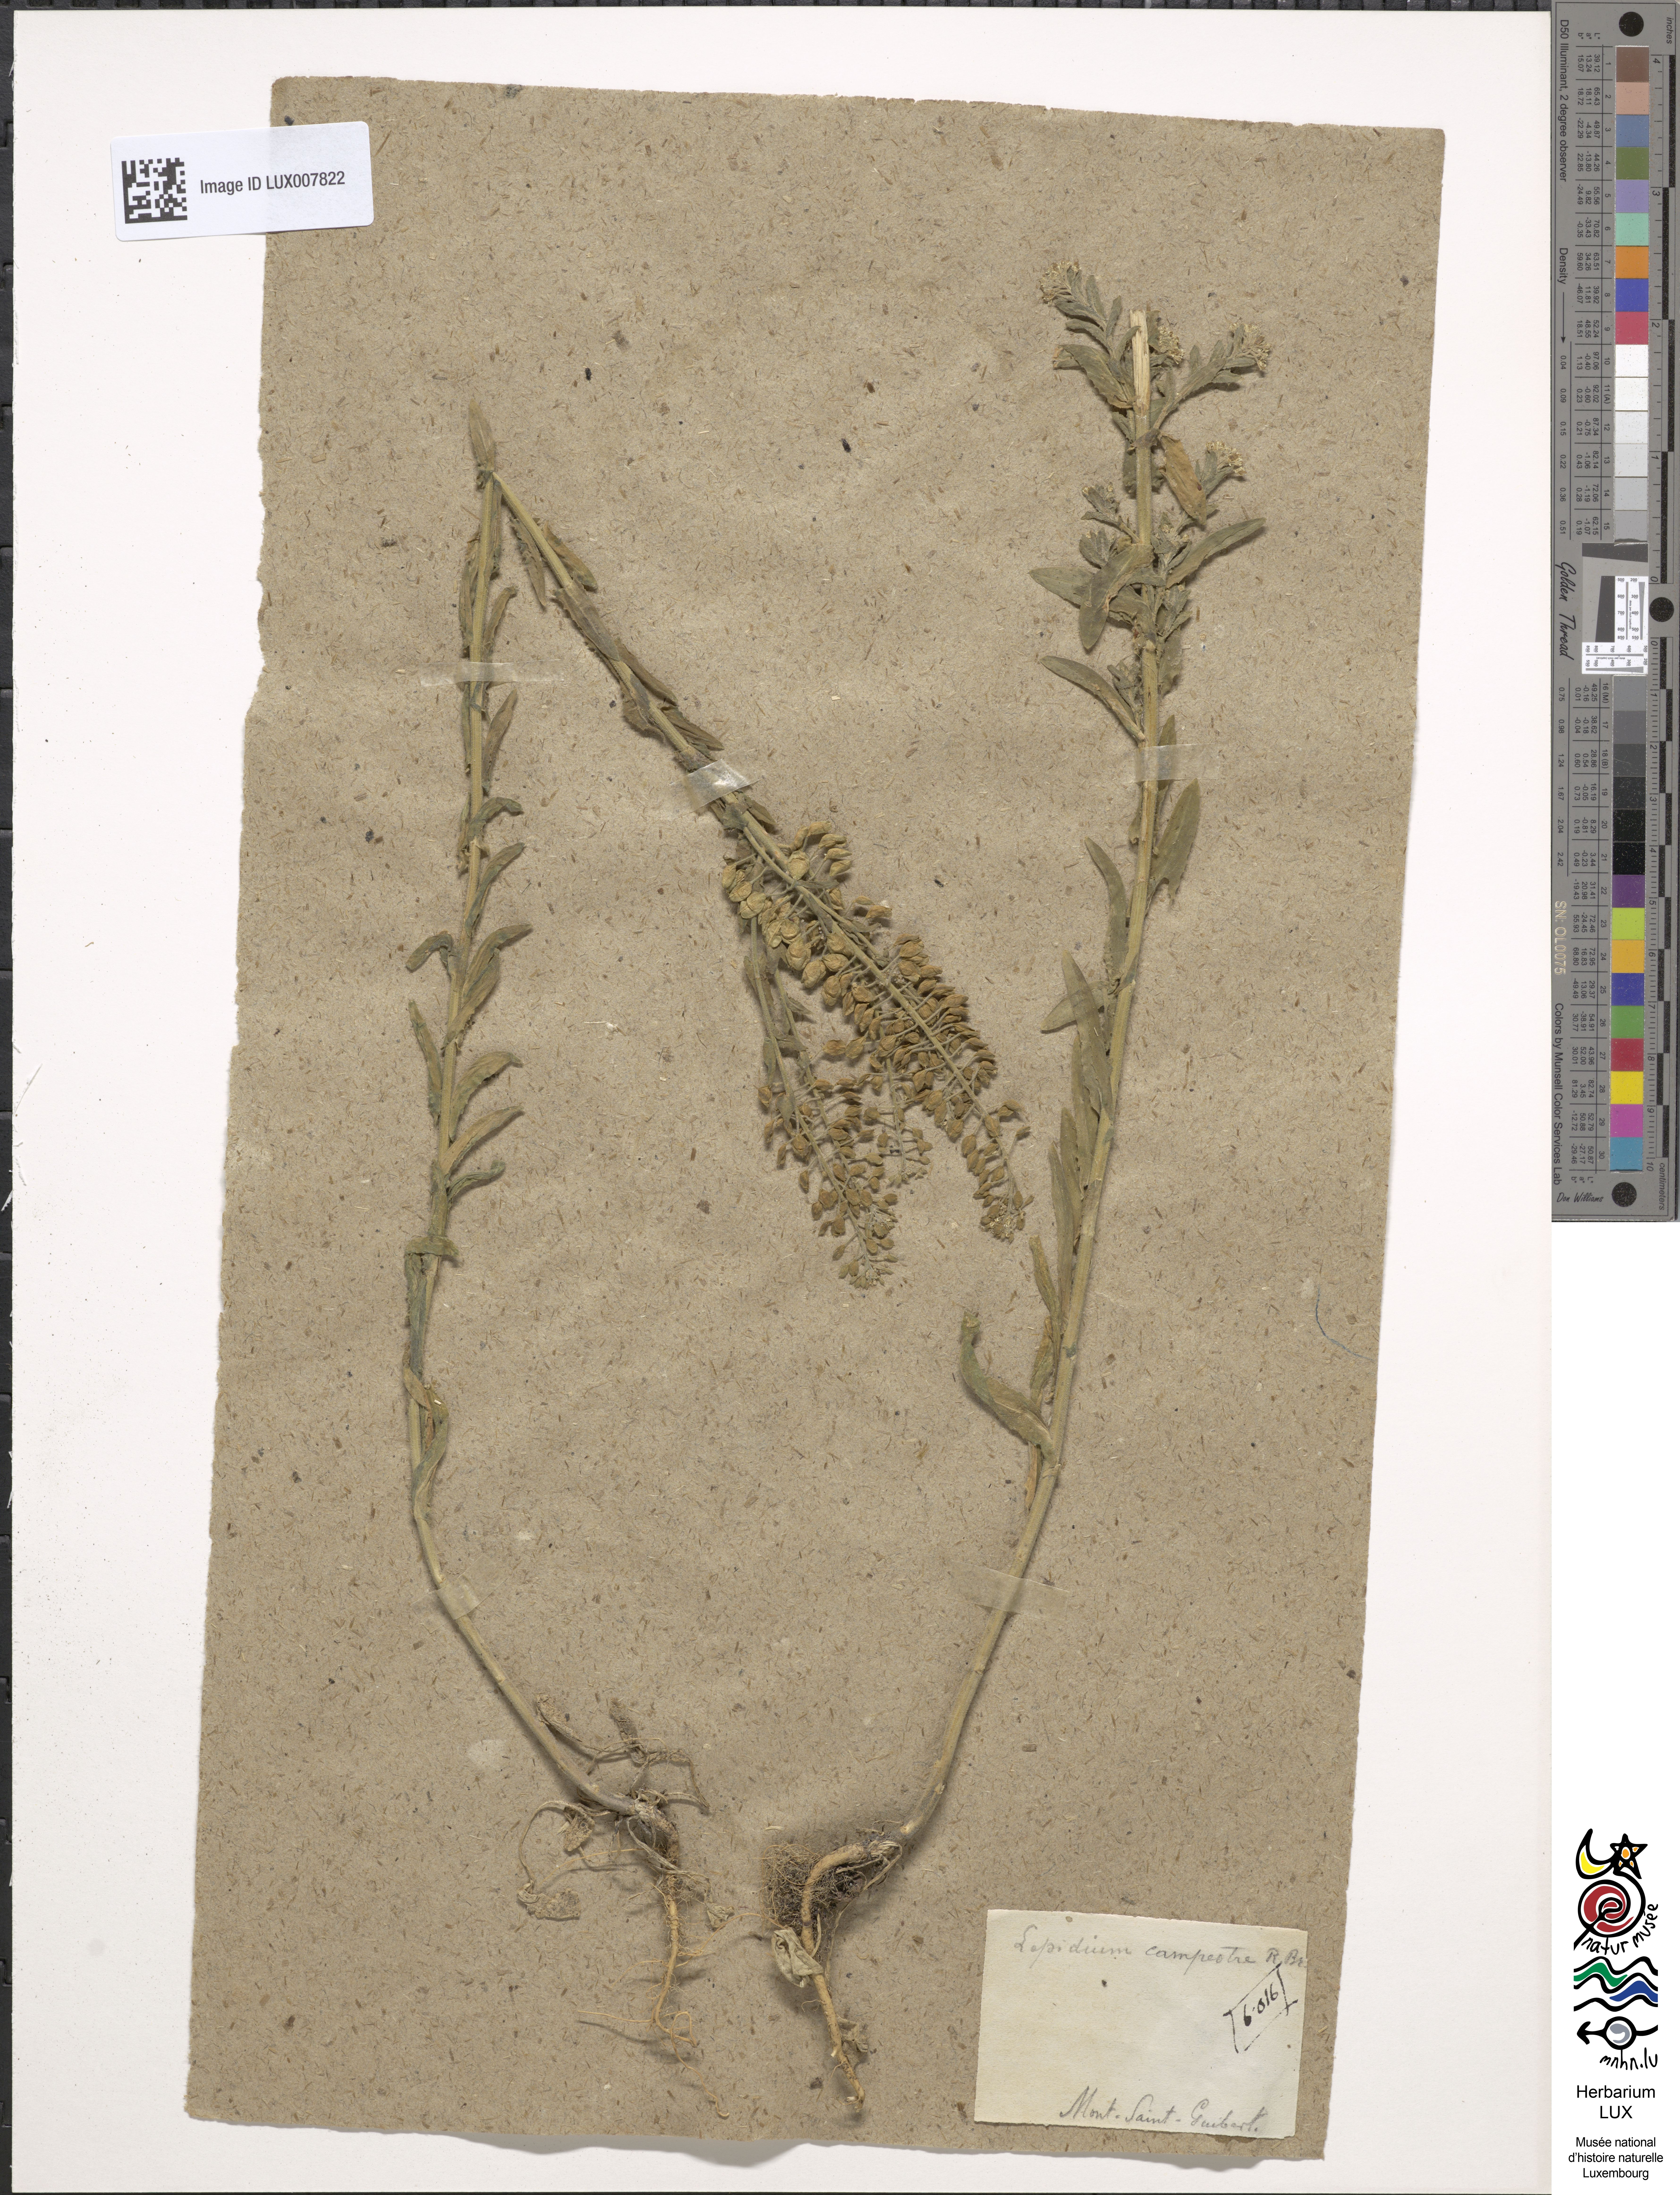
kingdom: Plantae
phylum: Tracheophyta
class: Magnoliopsida
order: Brassicales
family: Brassicaceae
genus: Lepidium
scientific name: Lepidium campestre
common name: Field pepperwort
